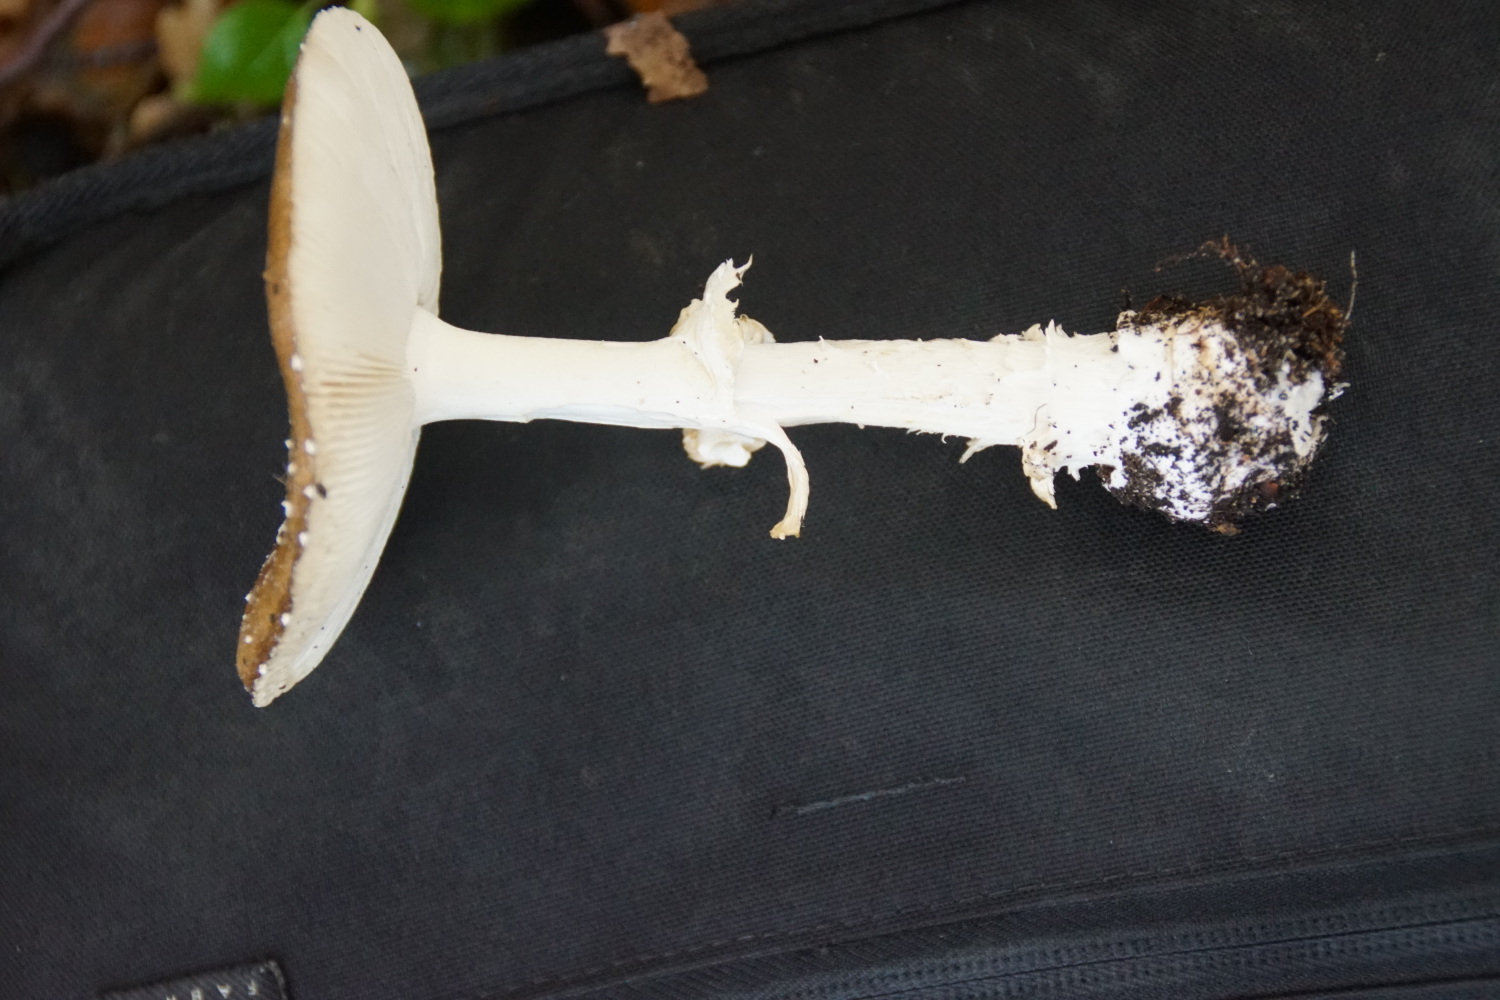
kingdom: Fungi
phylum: Basidiomycota
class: Agaricomycetes
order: Agaricales
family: Amanitaceae
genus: Amanita
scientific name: Amanita pantherina
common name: panter-fluesvamp
